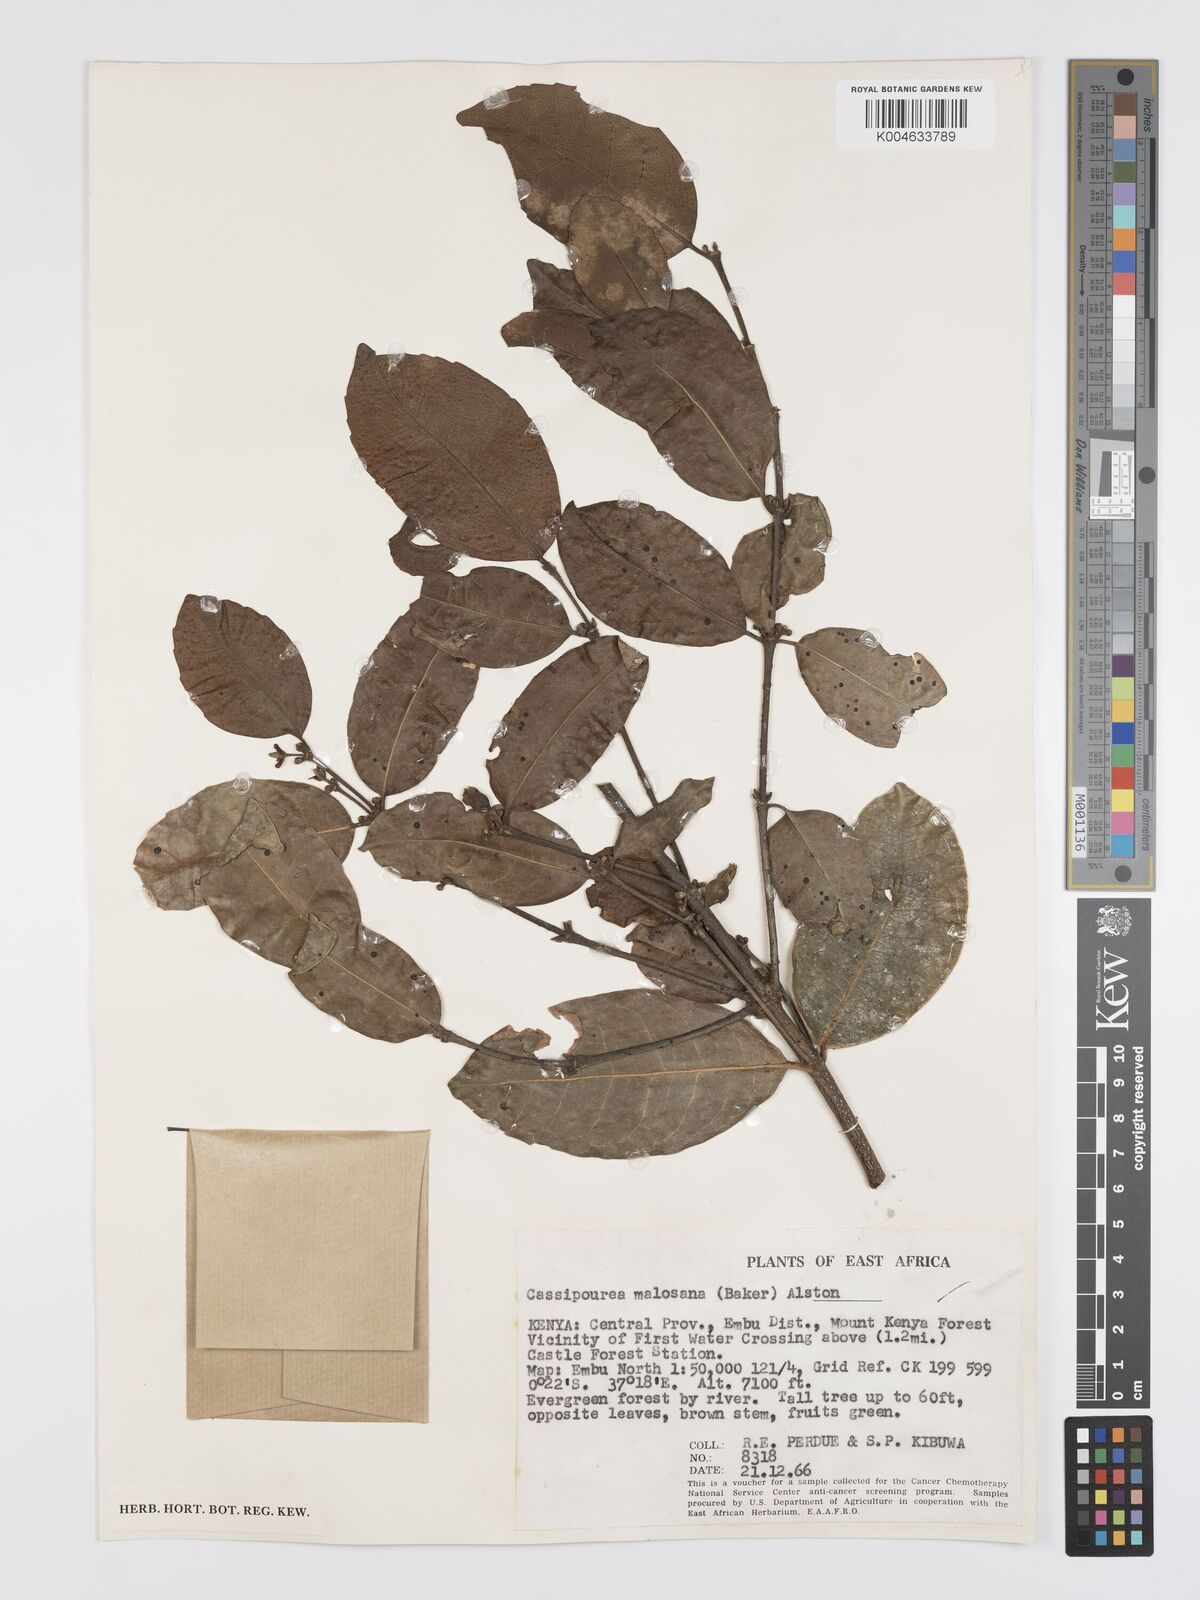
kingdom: Plantae
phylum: Tracheophyta
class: Magnoliopsida
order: Malpighiales
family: Rhizophoraceae
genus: Cassipourea
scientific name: Cassipourea malosana
